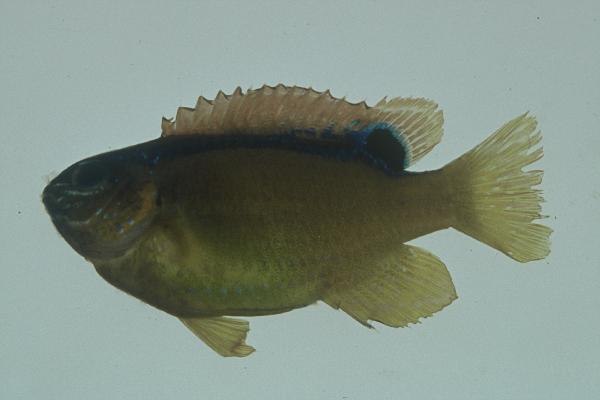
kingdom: Animalia
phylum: Chordata
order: Perciformes
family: Pomacentridae
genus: Chrysiptera
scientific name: Chrysiptera unimaculata
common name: Onespot demoiselle
